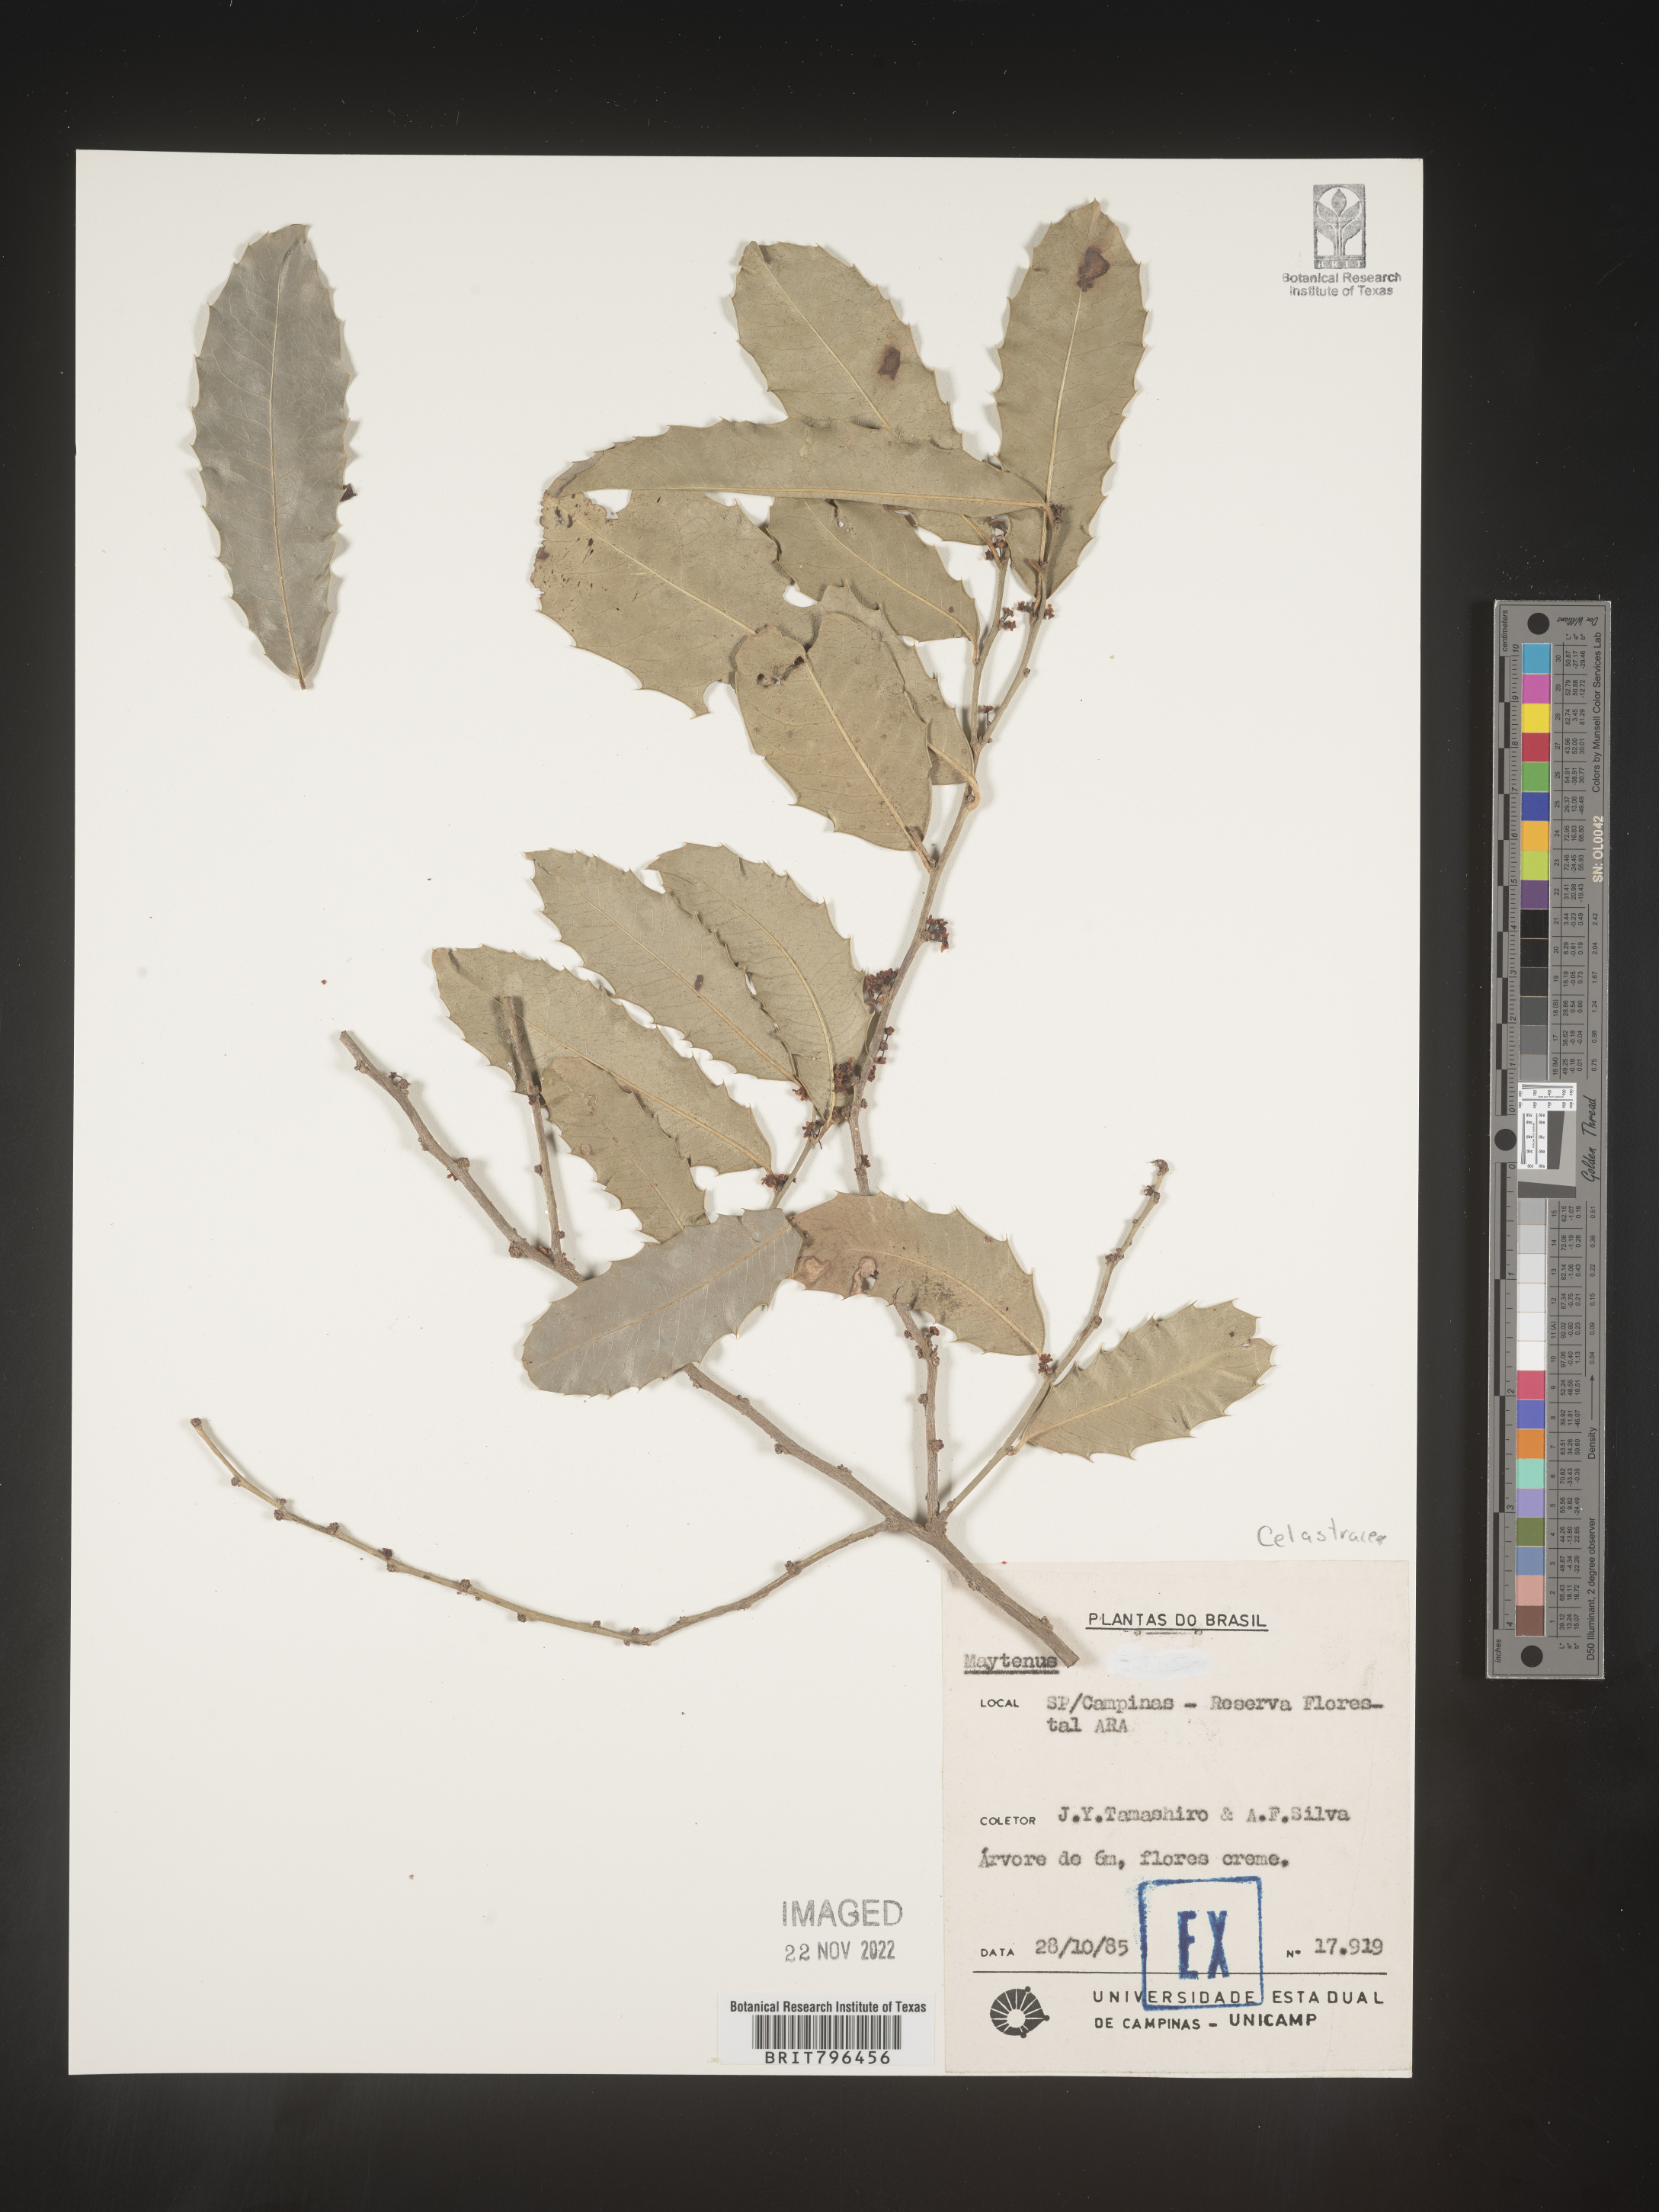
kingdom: Plantae
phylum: Tracheophyta
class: Magnoliopsida
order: Celastrales
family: Celastraceae
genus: Maytenus
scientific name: Maytenus
